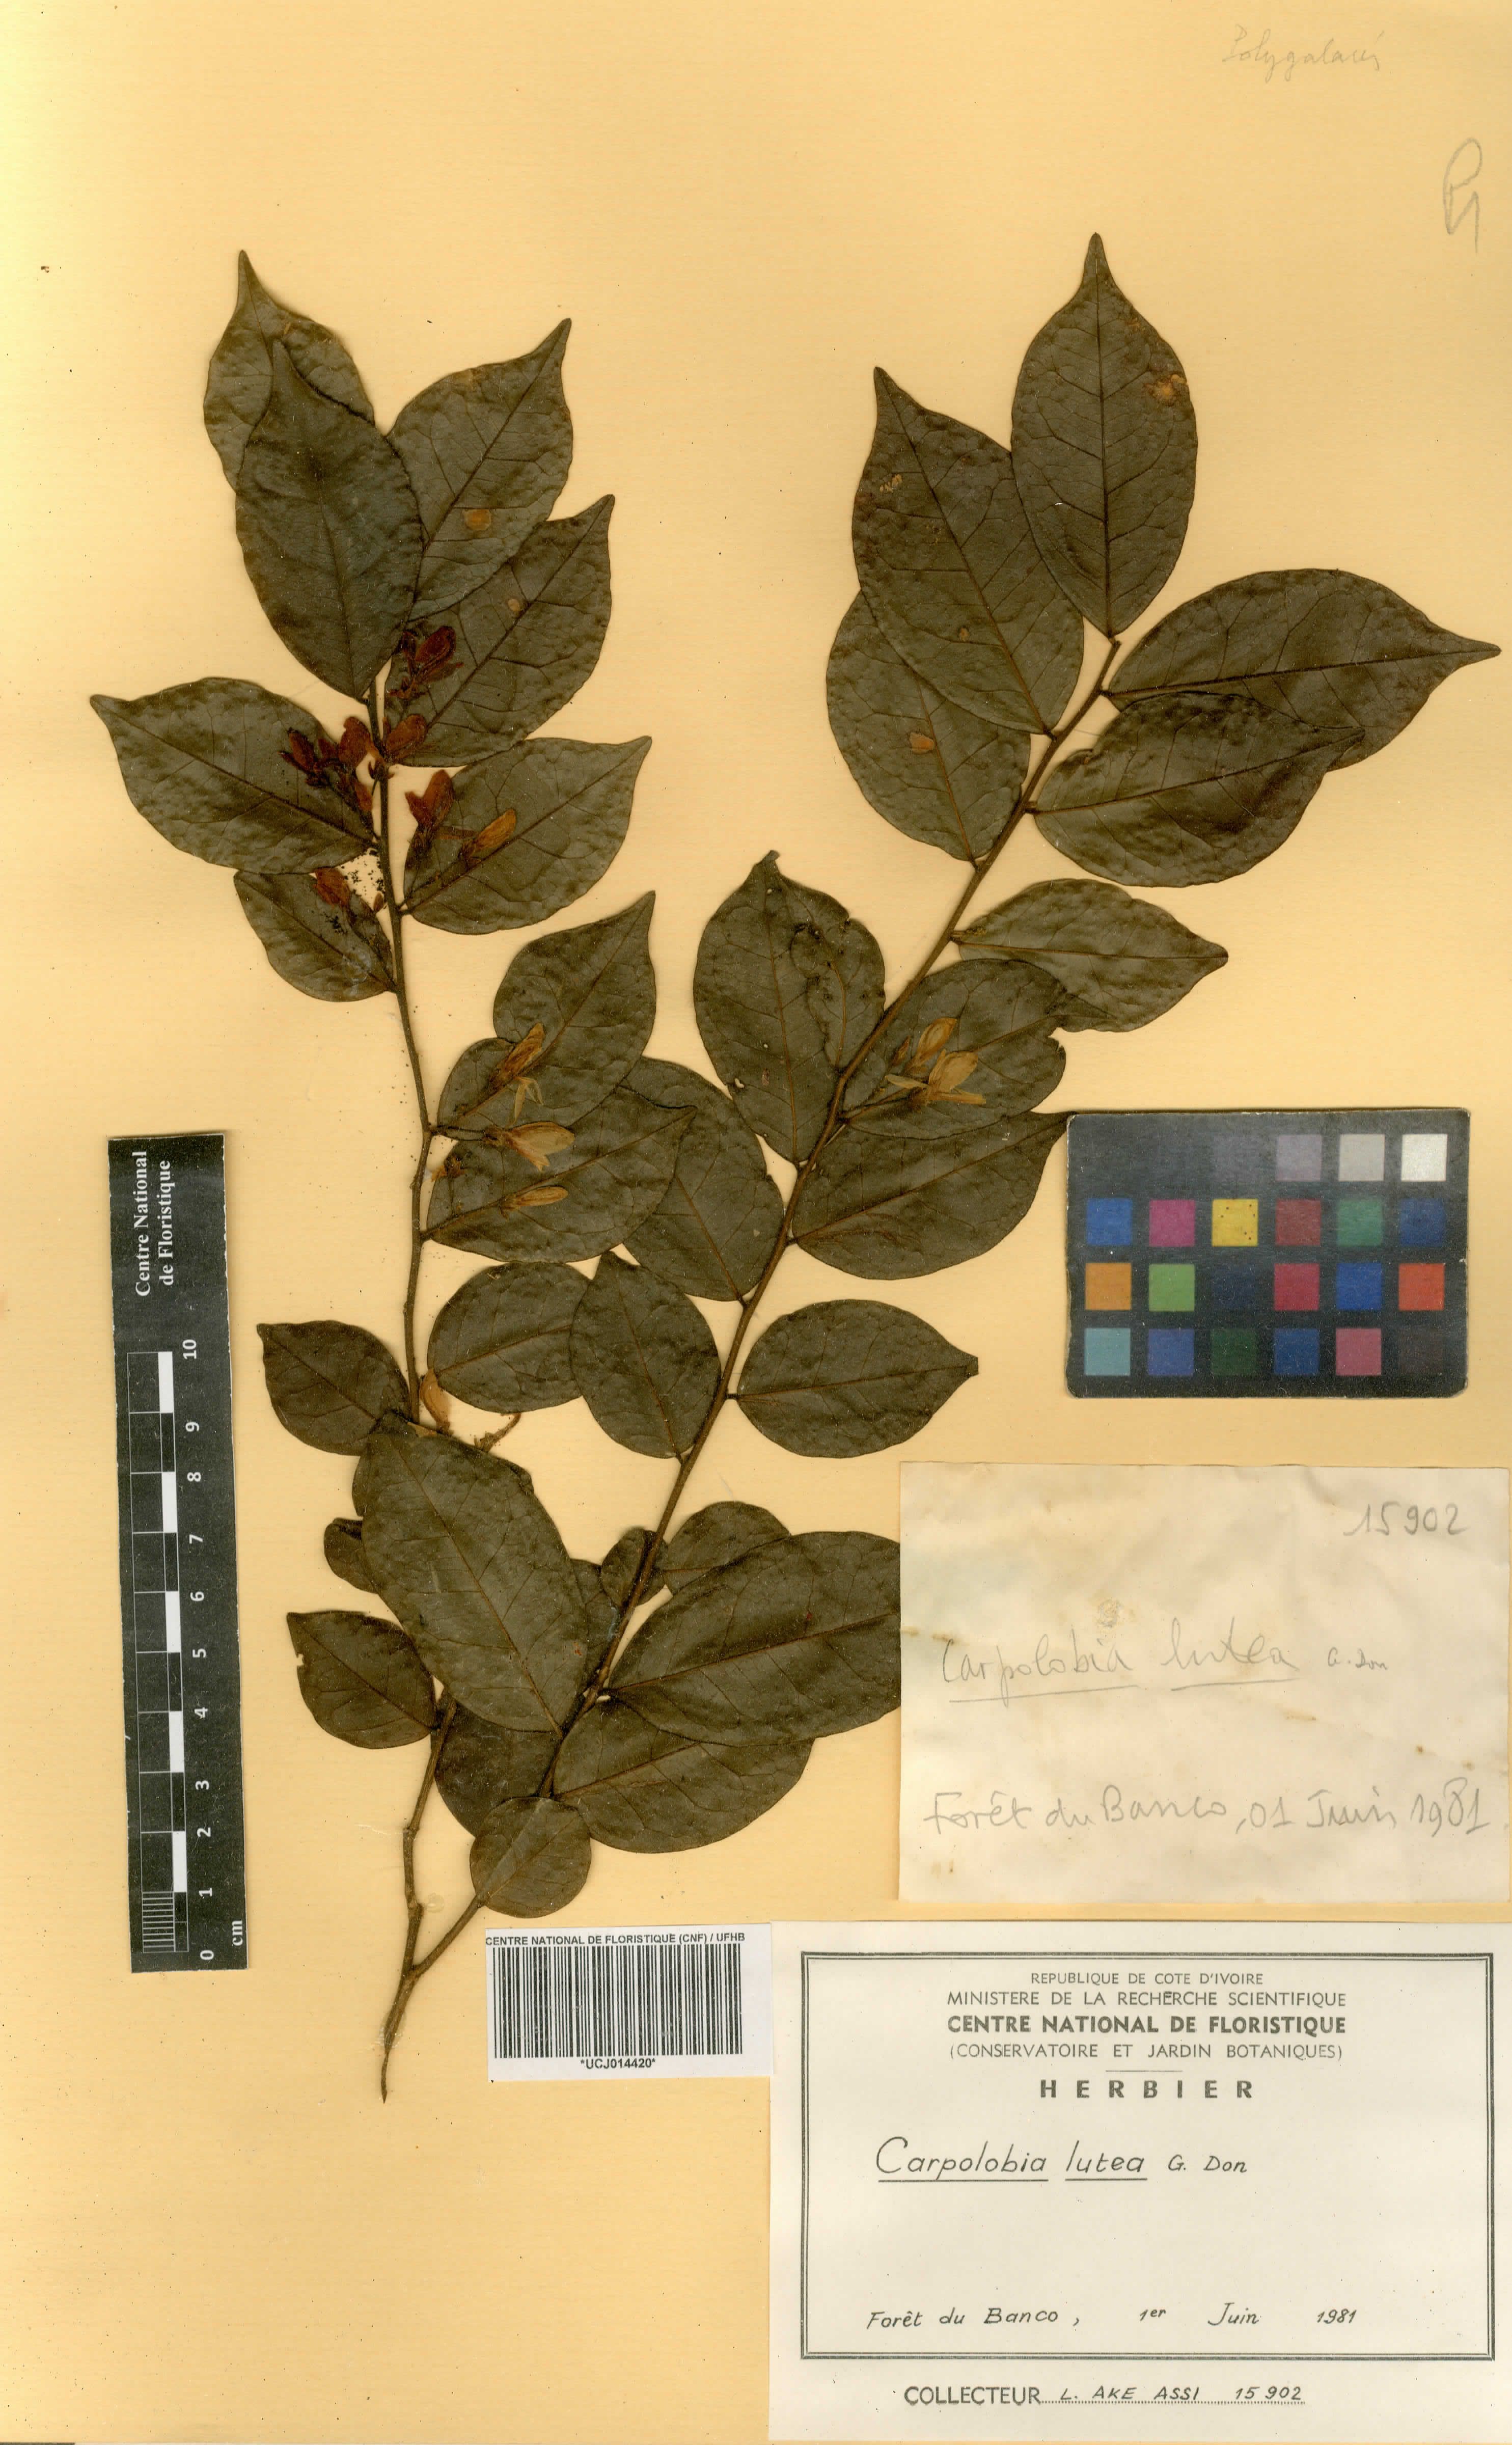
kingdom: Plantae
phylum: Tracheophyta
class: Magnoliopsida
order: Fabales
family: Polygalaceae
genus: Carpolobia
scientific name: Carpolobia lutea
